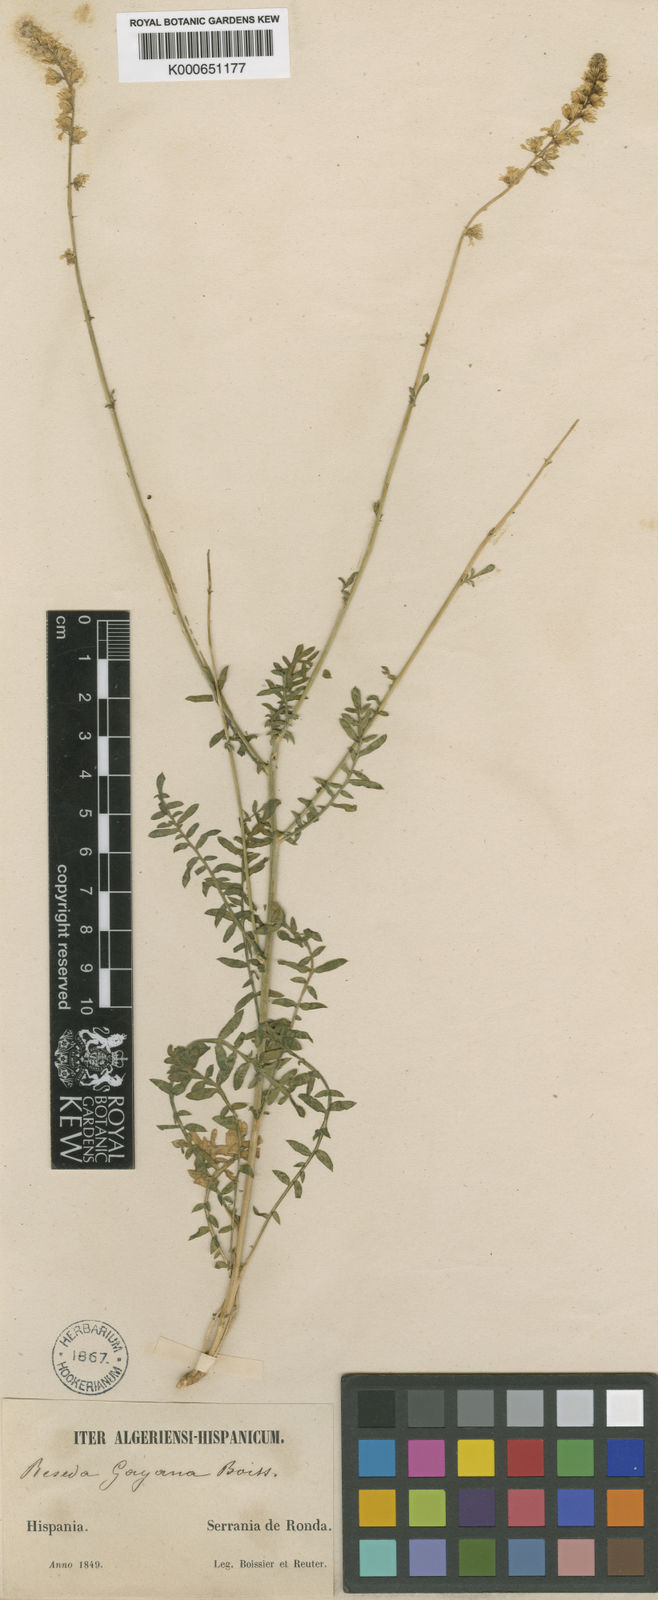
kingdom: Plantae
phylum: Tracheophyta
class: Magnoliopsida
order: Brassicales
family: Resedaceae
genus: Reseda
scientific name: Reseda undata
